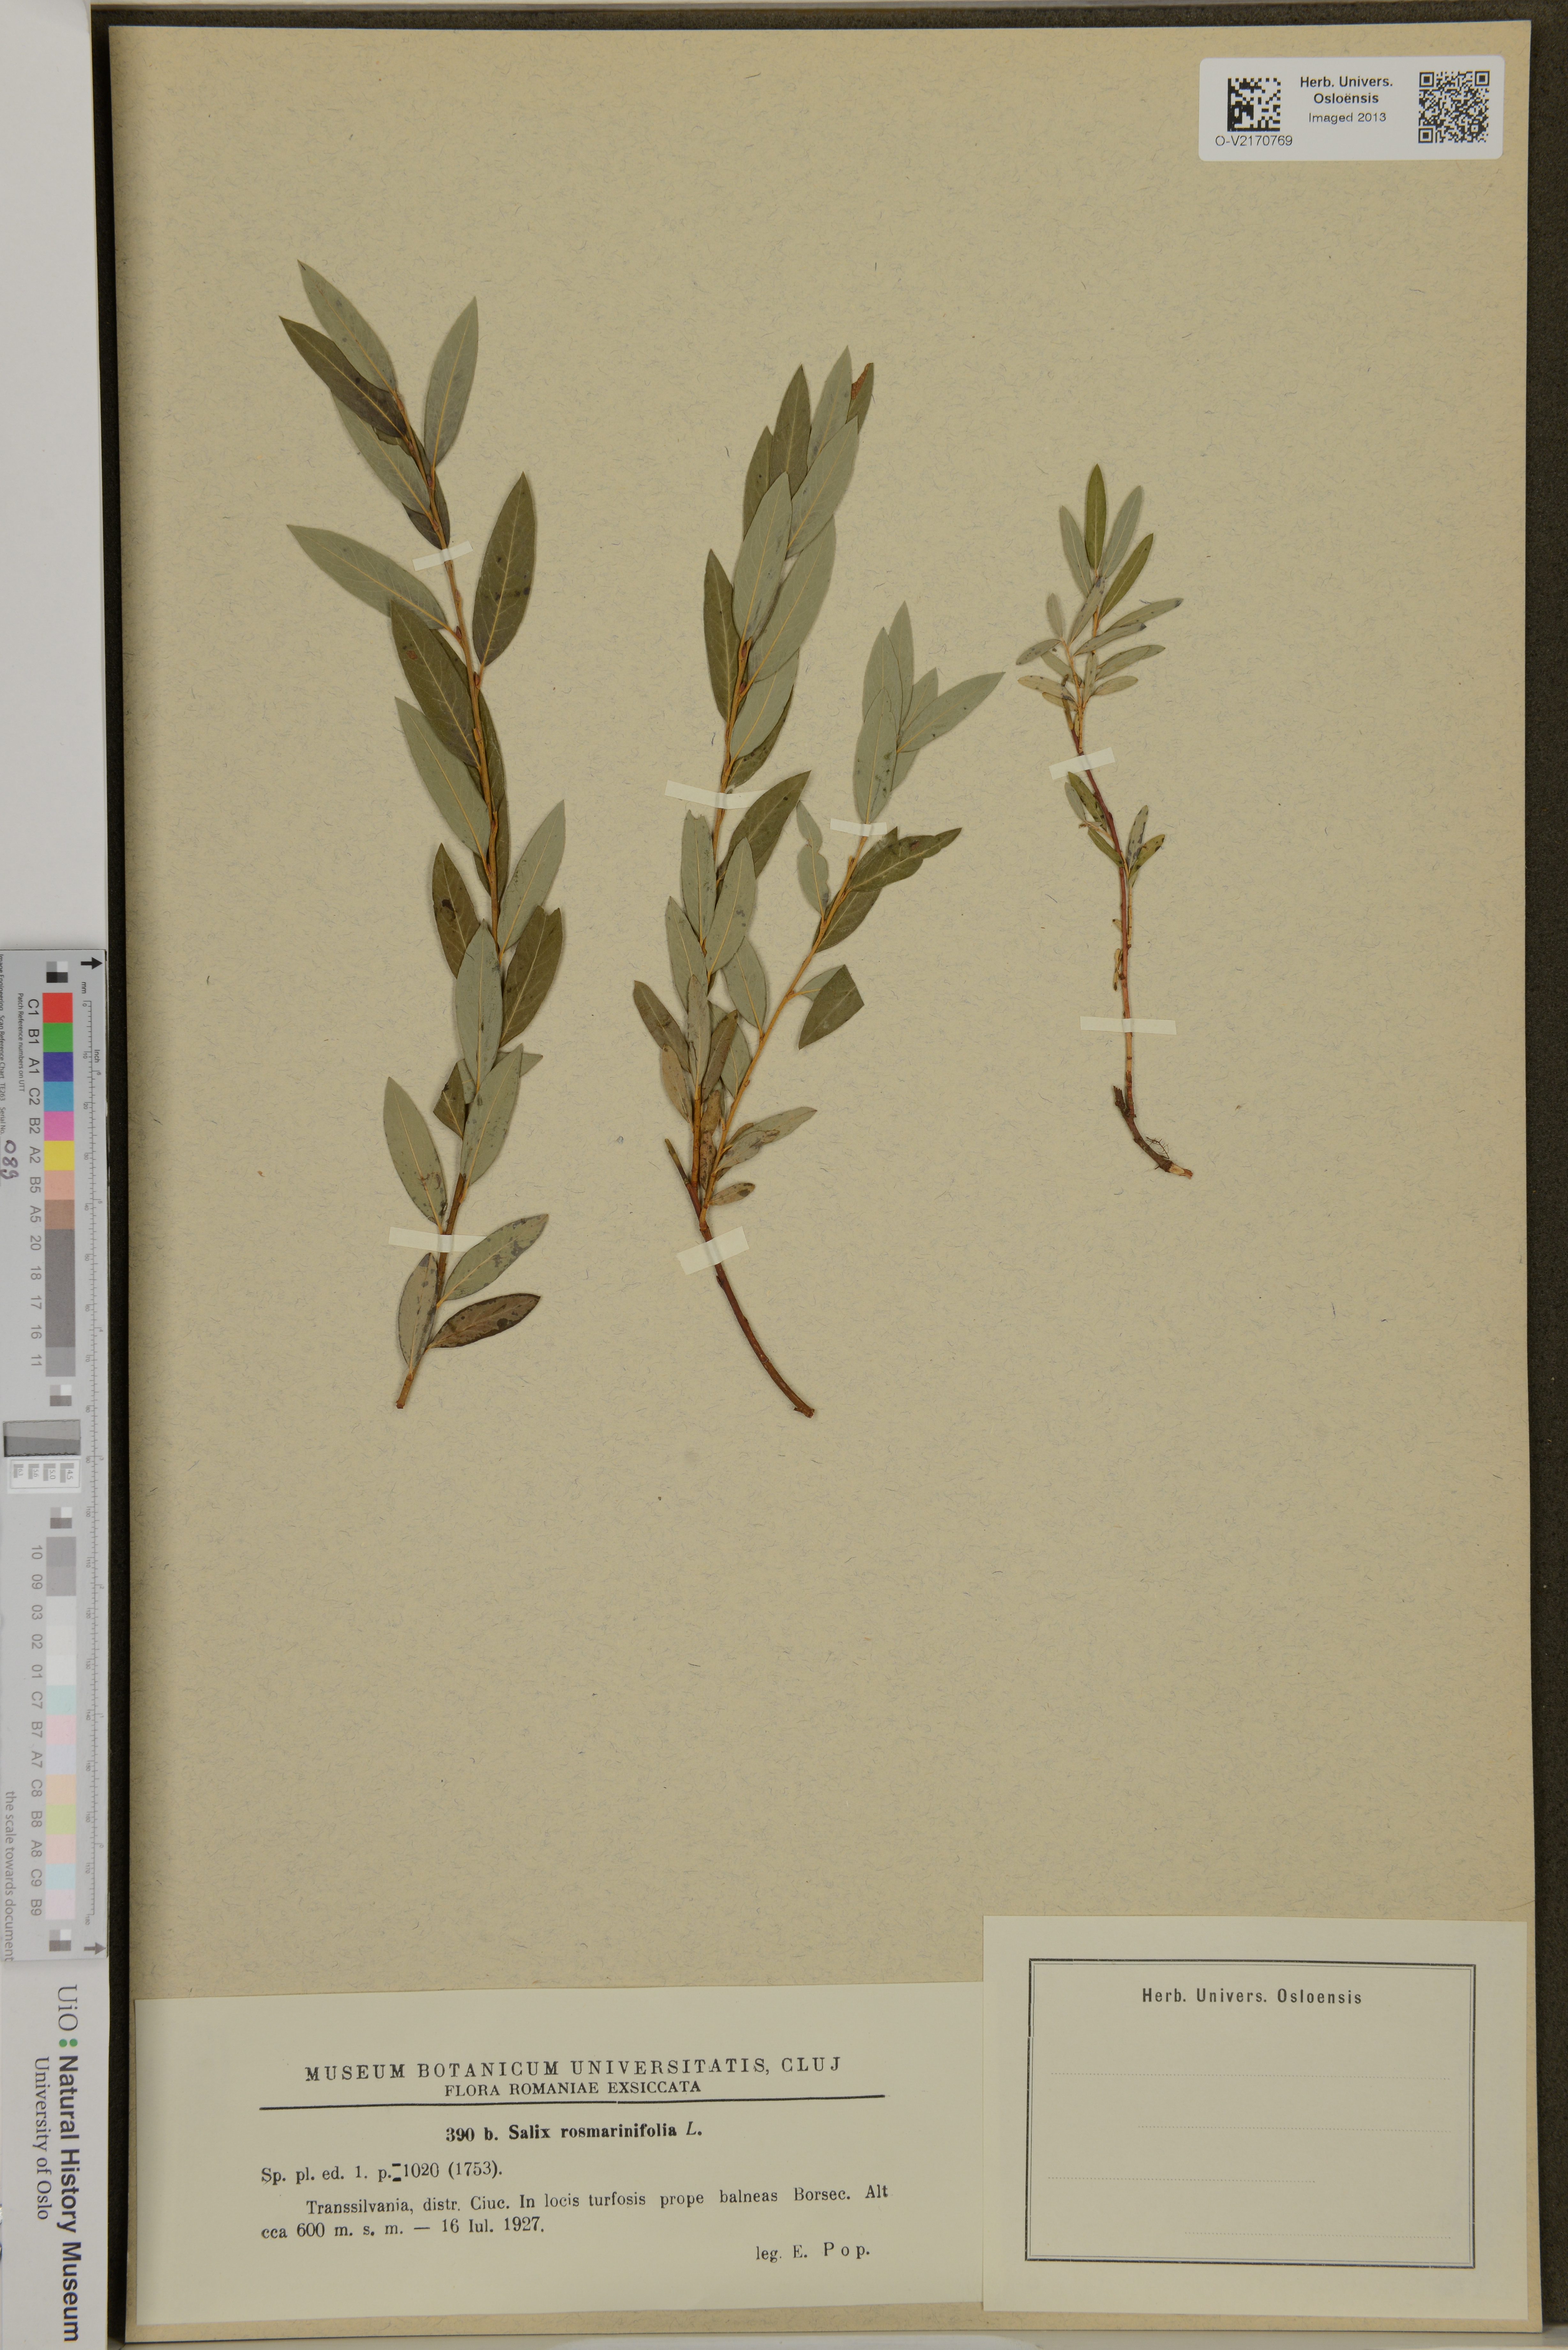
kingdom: Plantae
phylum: Tracheophyta
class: Magnoliopsida
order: Malpighiales
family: Salicaceae
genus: Salix
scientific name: Salix rosmarinifolia
